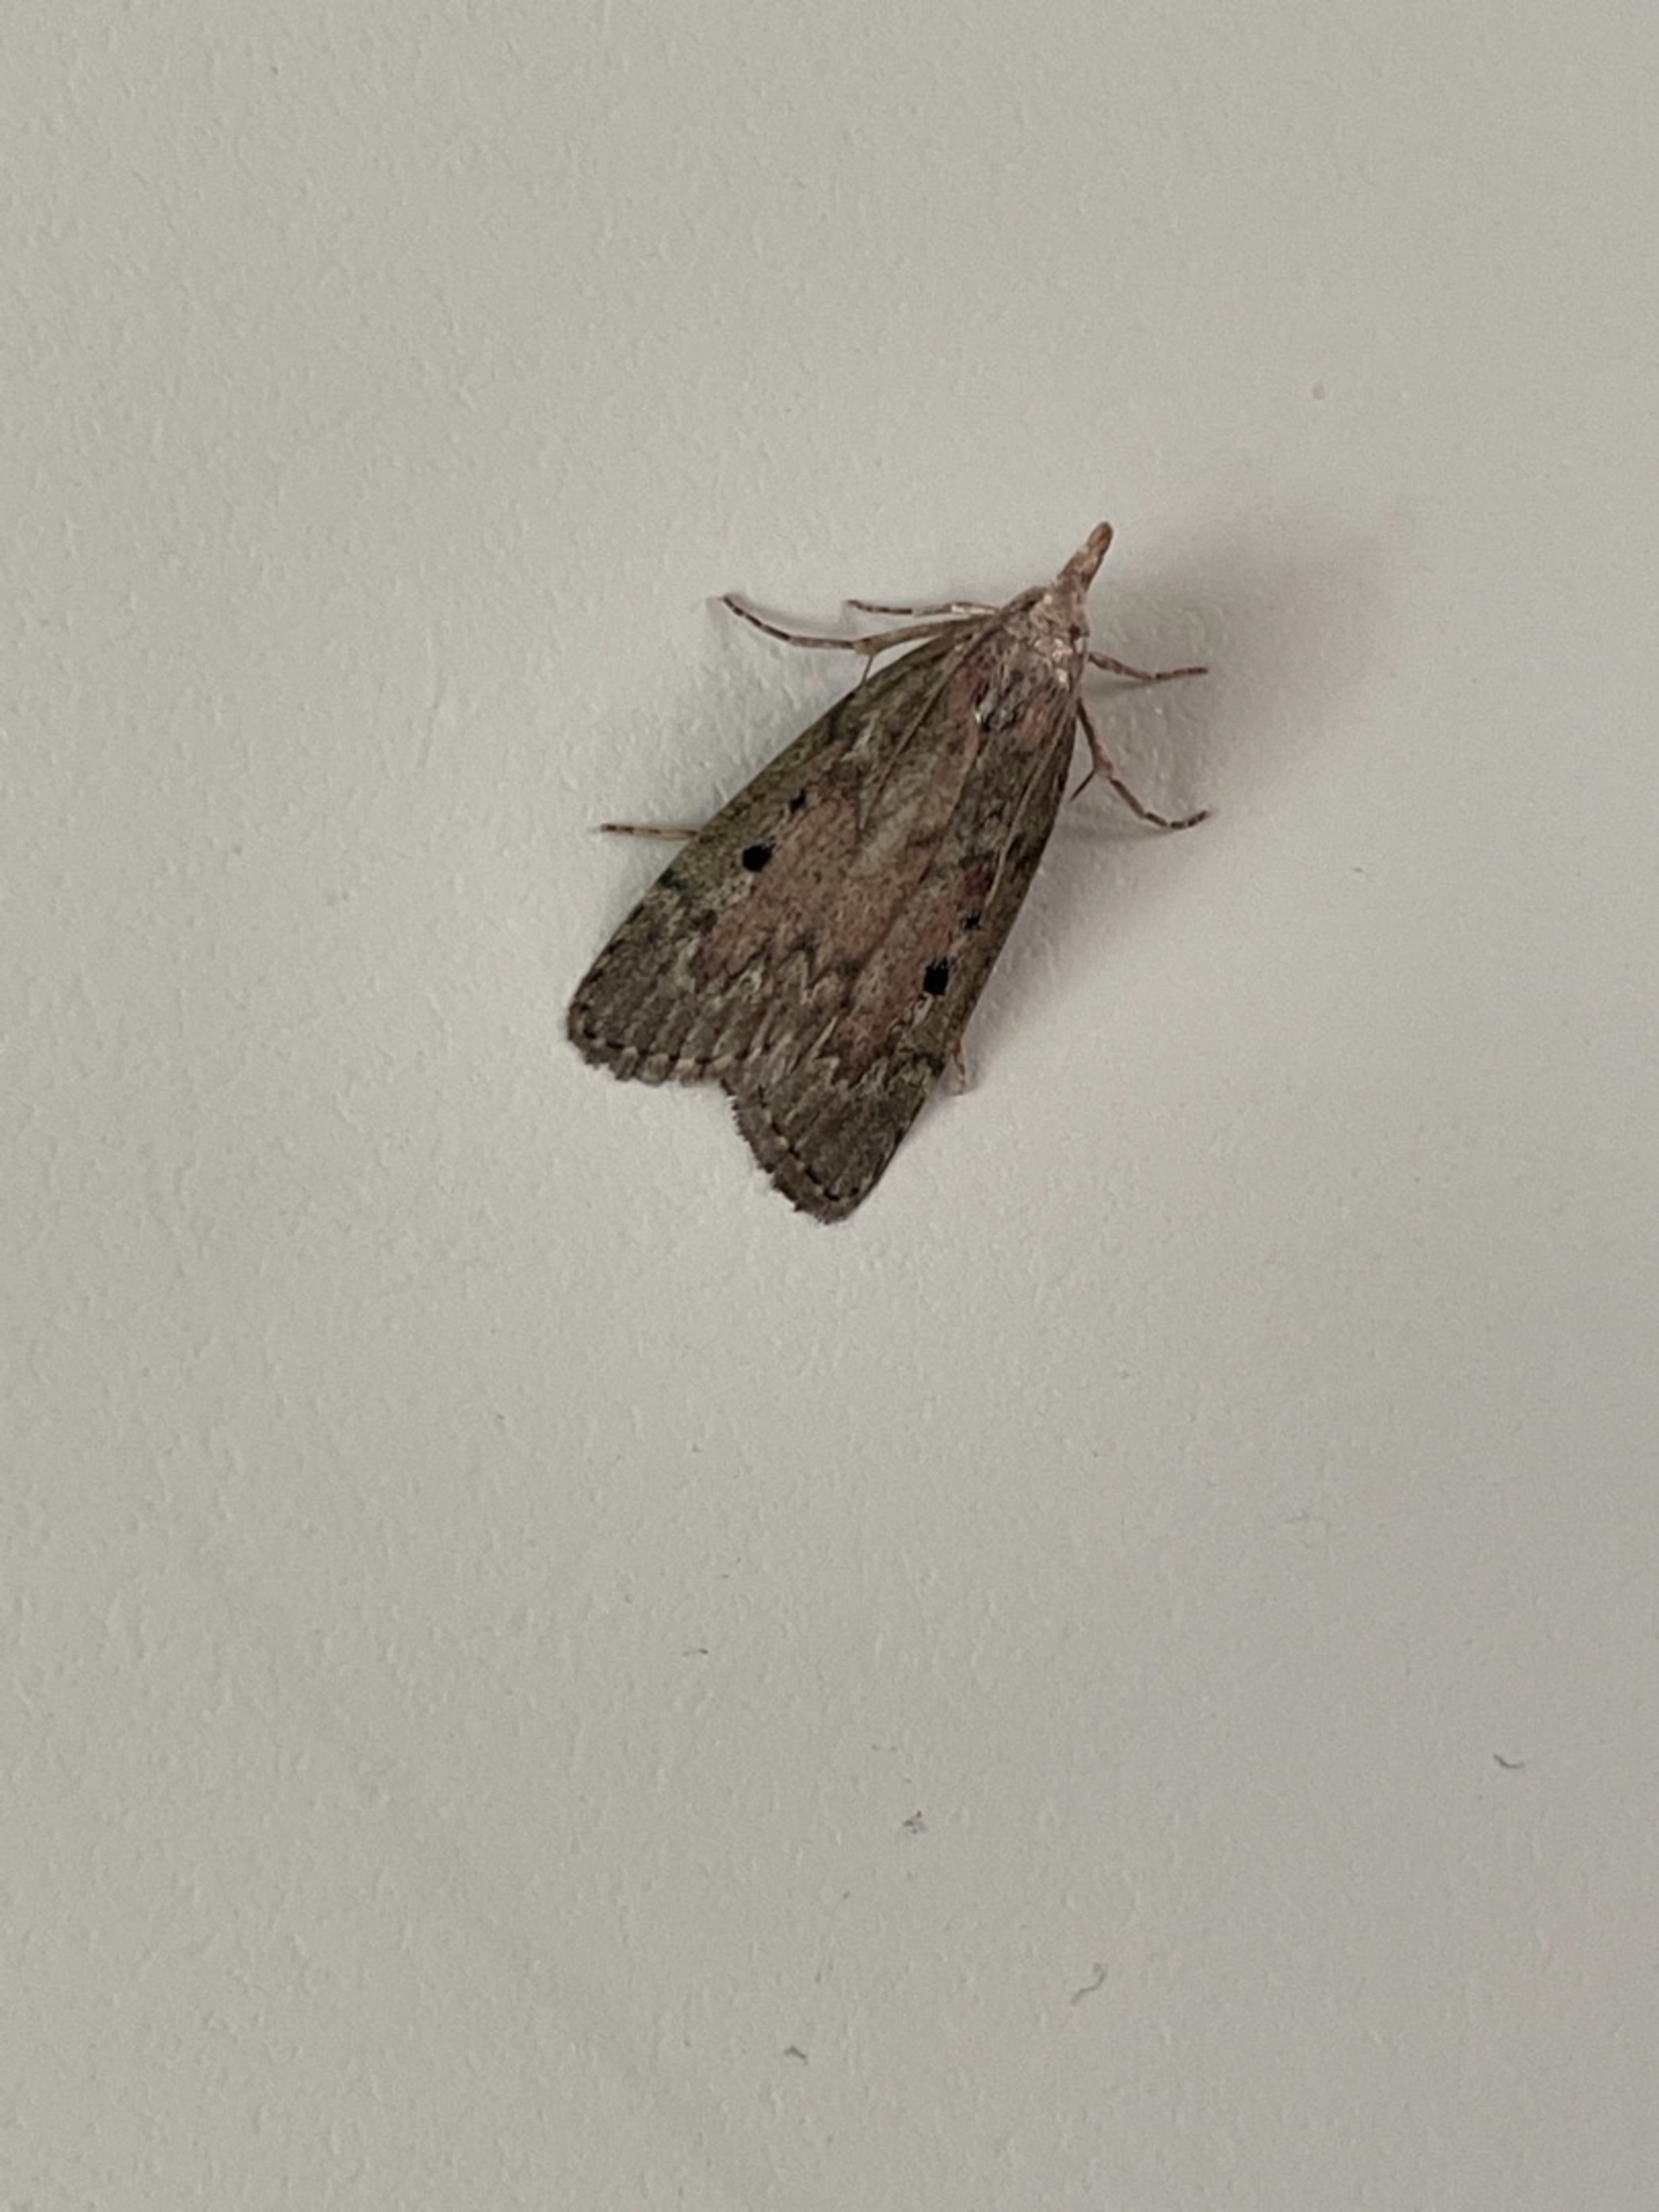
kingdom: Animalia
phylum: Arthropoda
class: Insecta
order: Lepidoptera
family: Pyralidae
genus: Aphomia
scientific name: Aphomia sociella
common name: Humlevoksmøl
